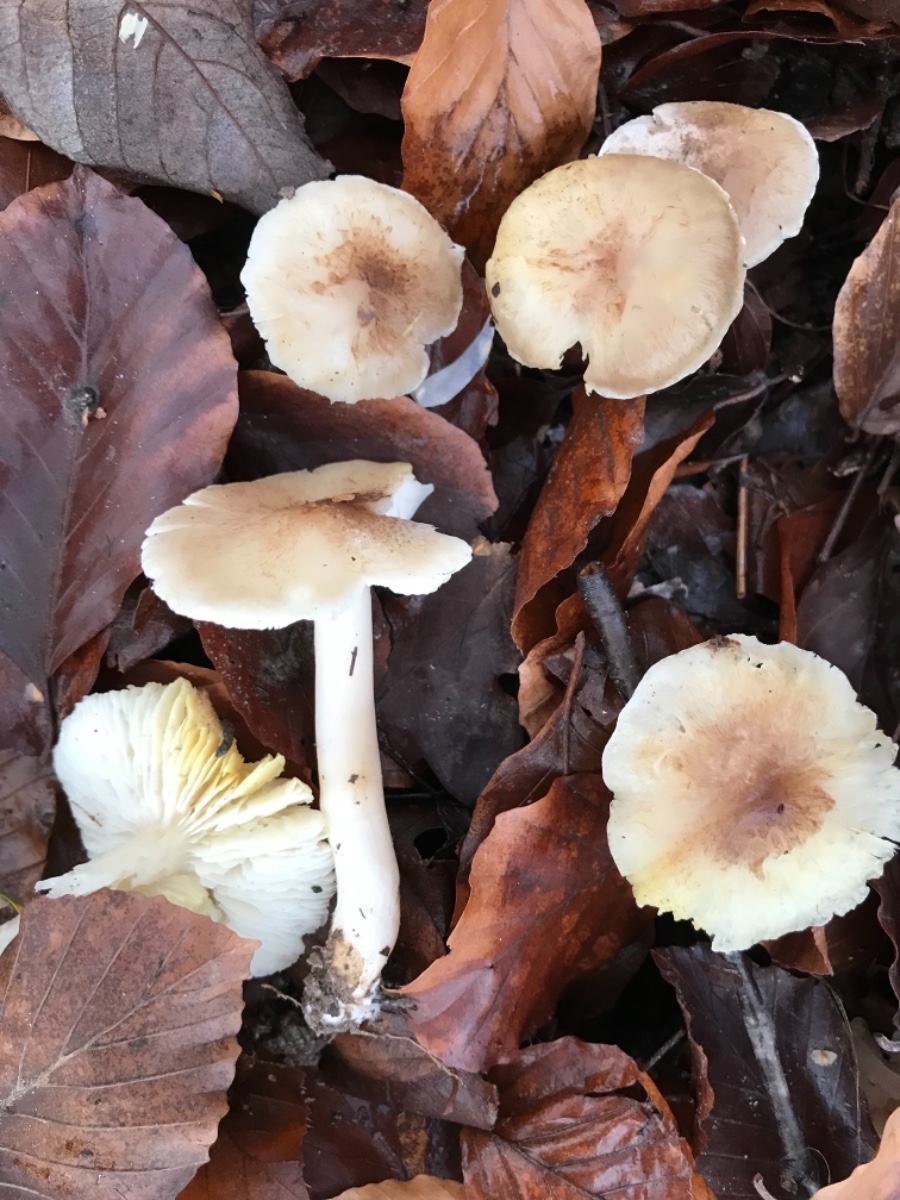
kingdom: Fungi
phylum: Basidiomycota
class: Agaricomycetes
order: Agaricales
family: Tricholomataceae
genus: Tricholoma
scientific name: Tricholoma scalpturatum
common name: gulplettet ridderhat
